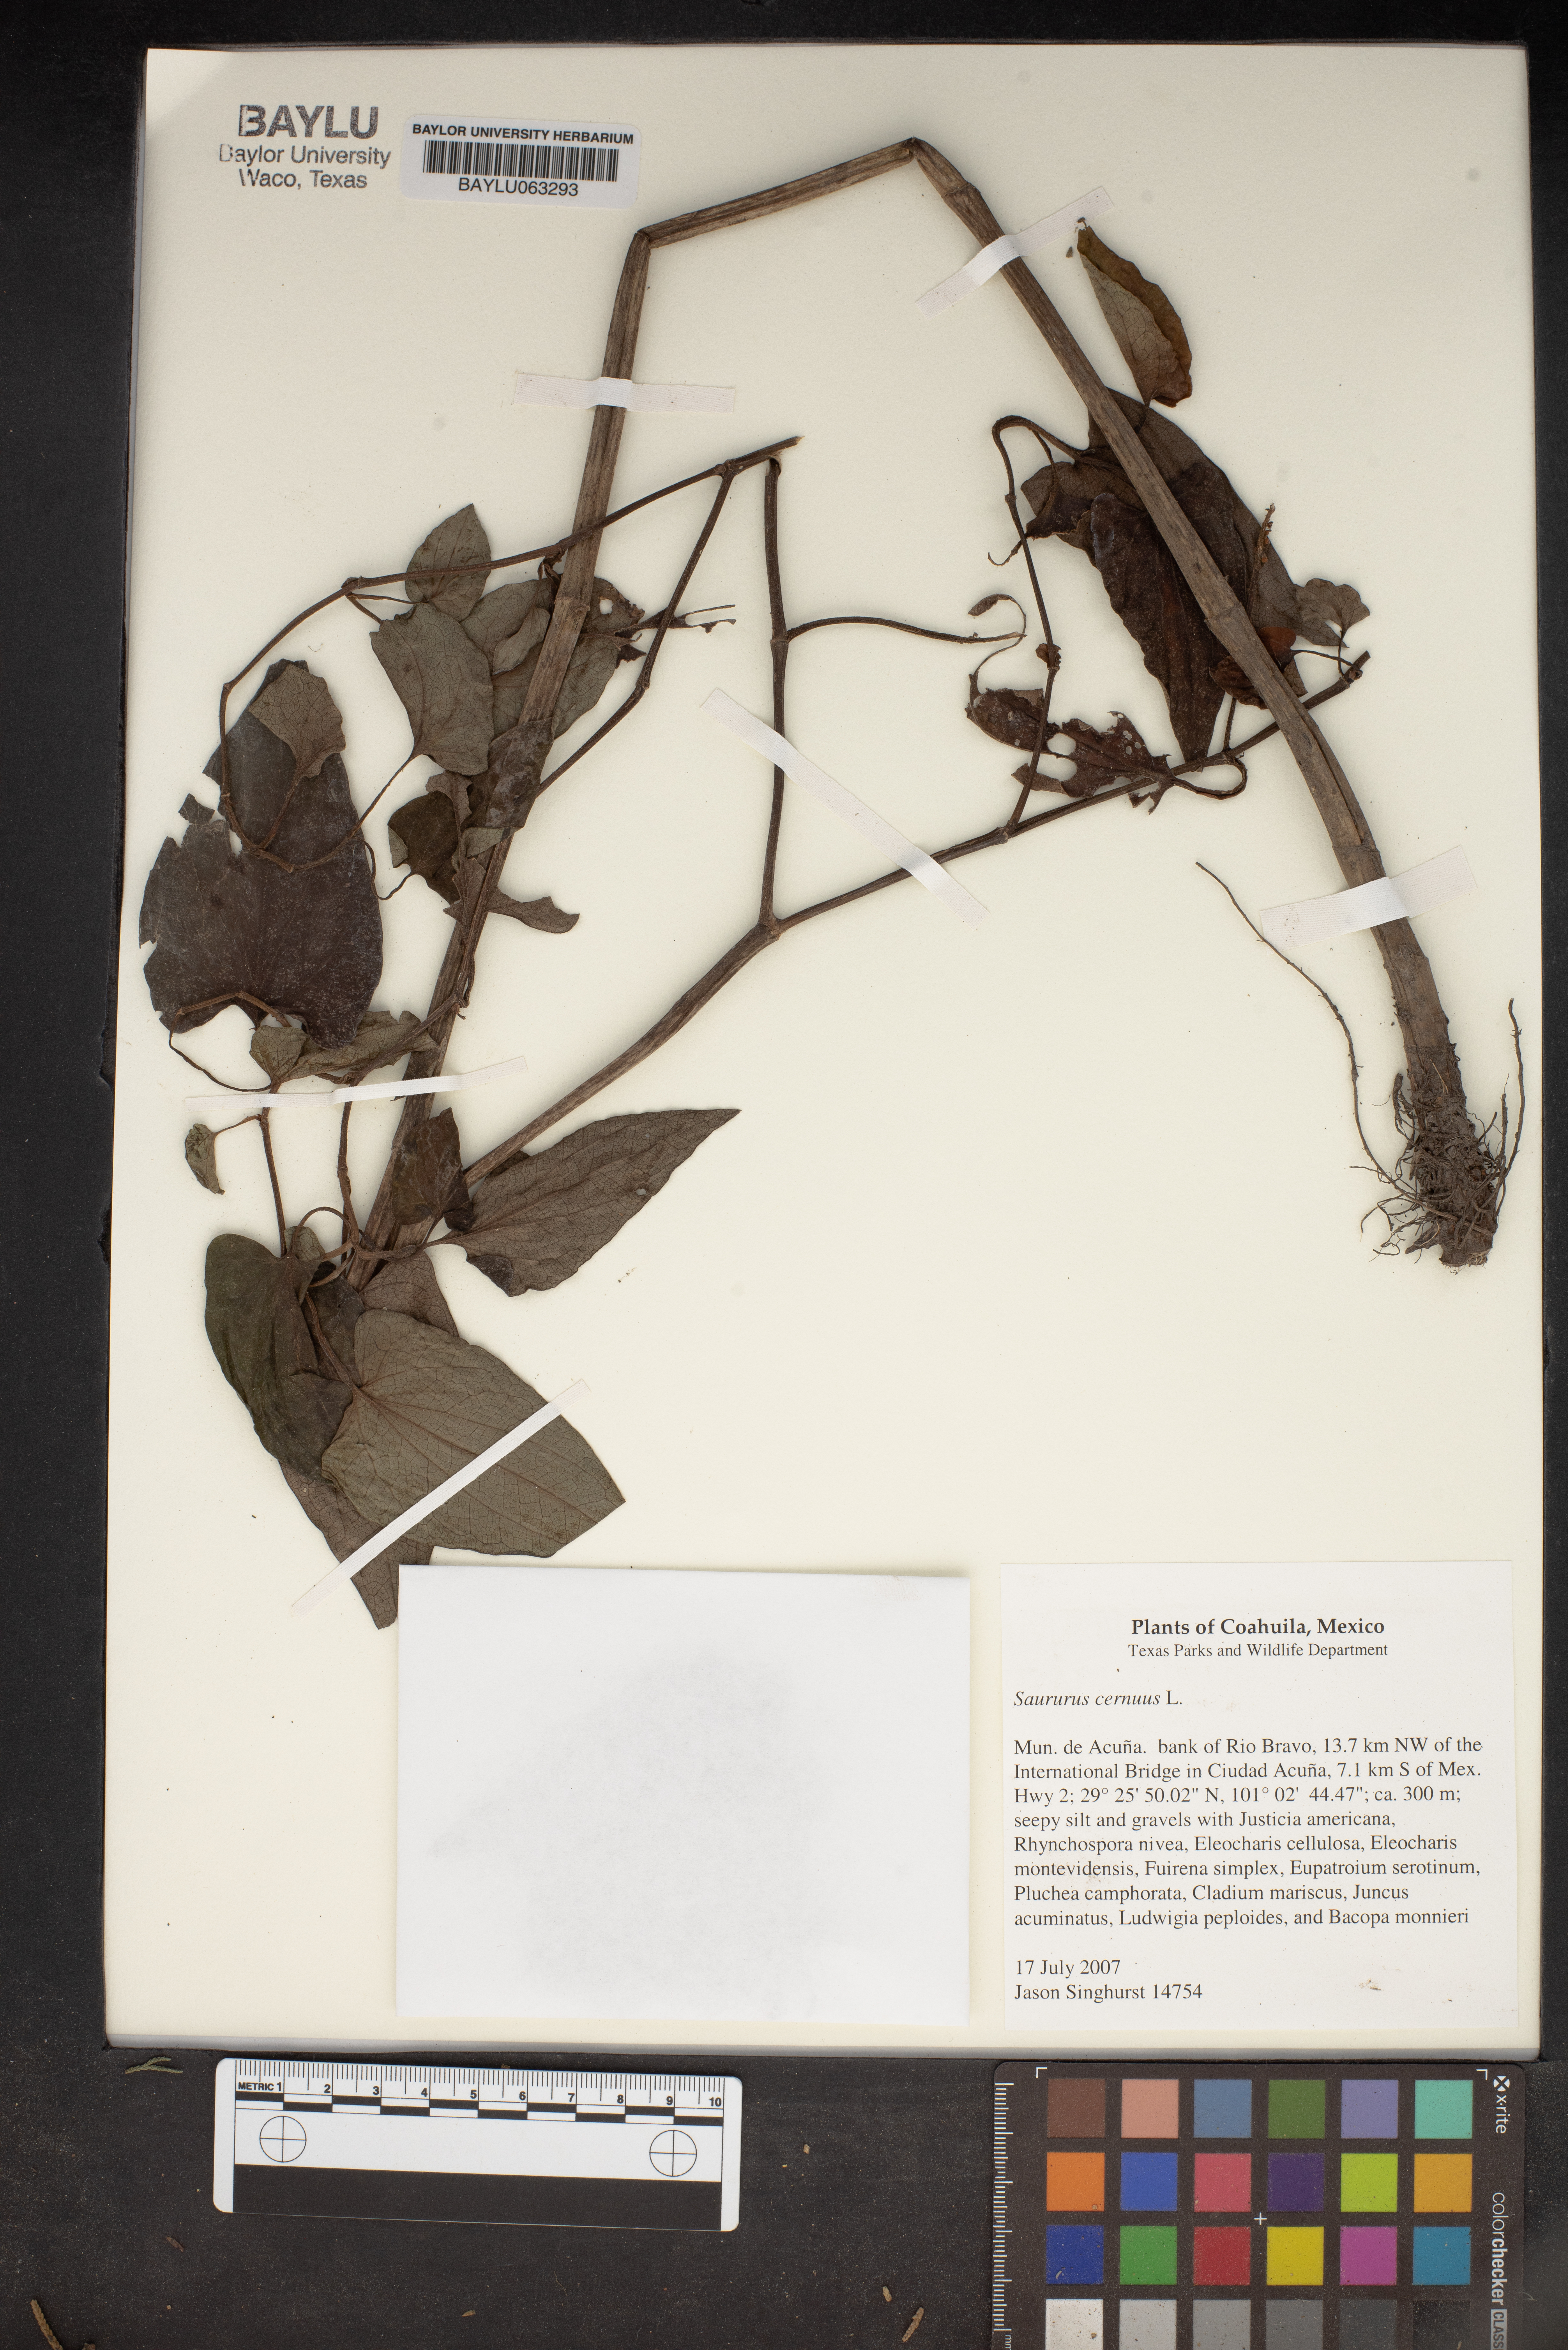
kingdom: Plantae
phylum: Tracheophyta
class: Magnoliopsida
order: Piperales
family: Saururaceae
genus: Saururus
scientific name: Saururus cernuus
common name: Lizard's-tail
